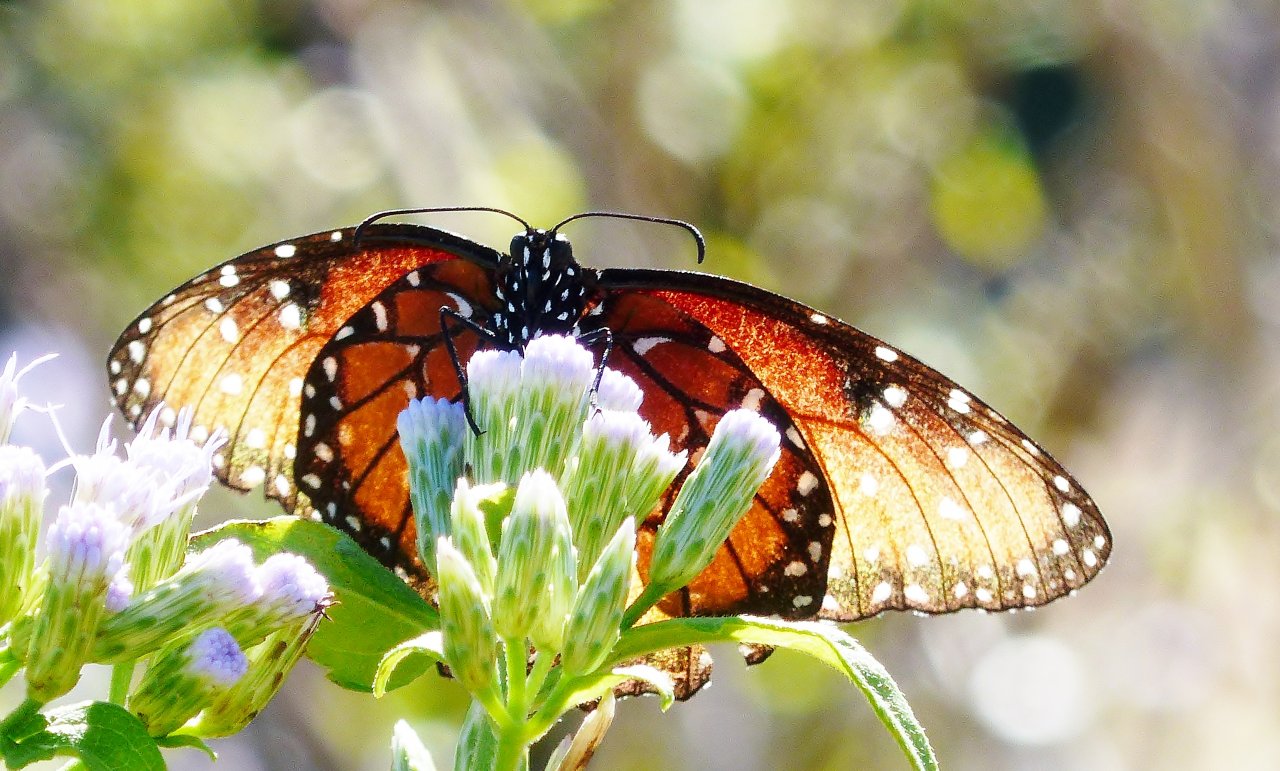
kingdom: Animalia
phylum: Arthropoda
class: Insecta
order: Lepidoptera
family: Nymphalidae
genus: Danaus
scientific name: Danaus gilippus
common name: Queen
